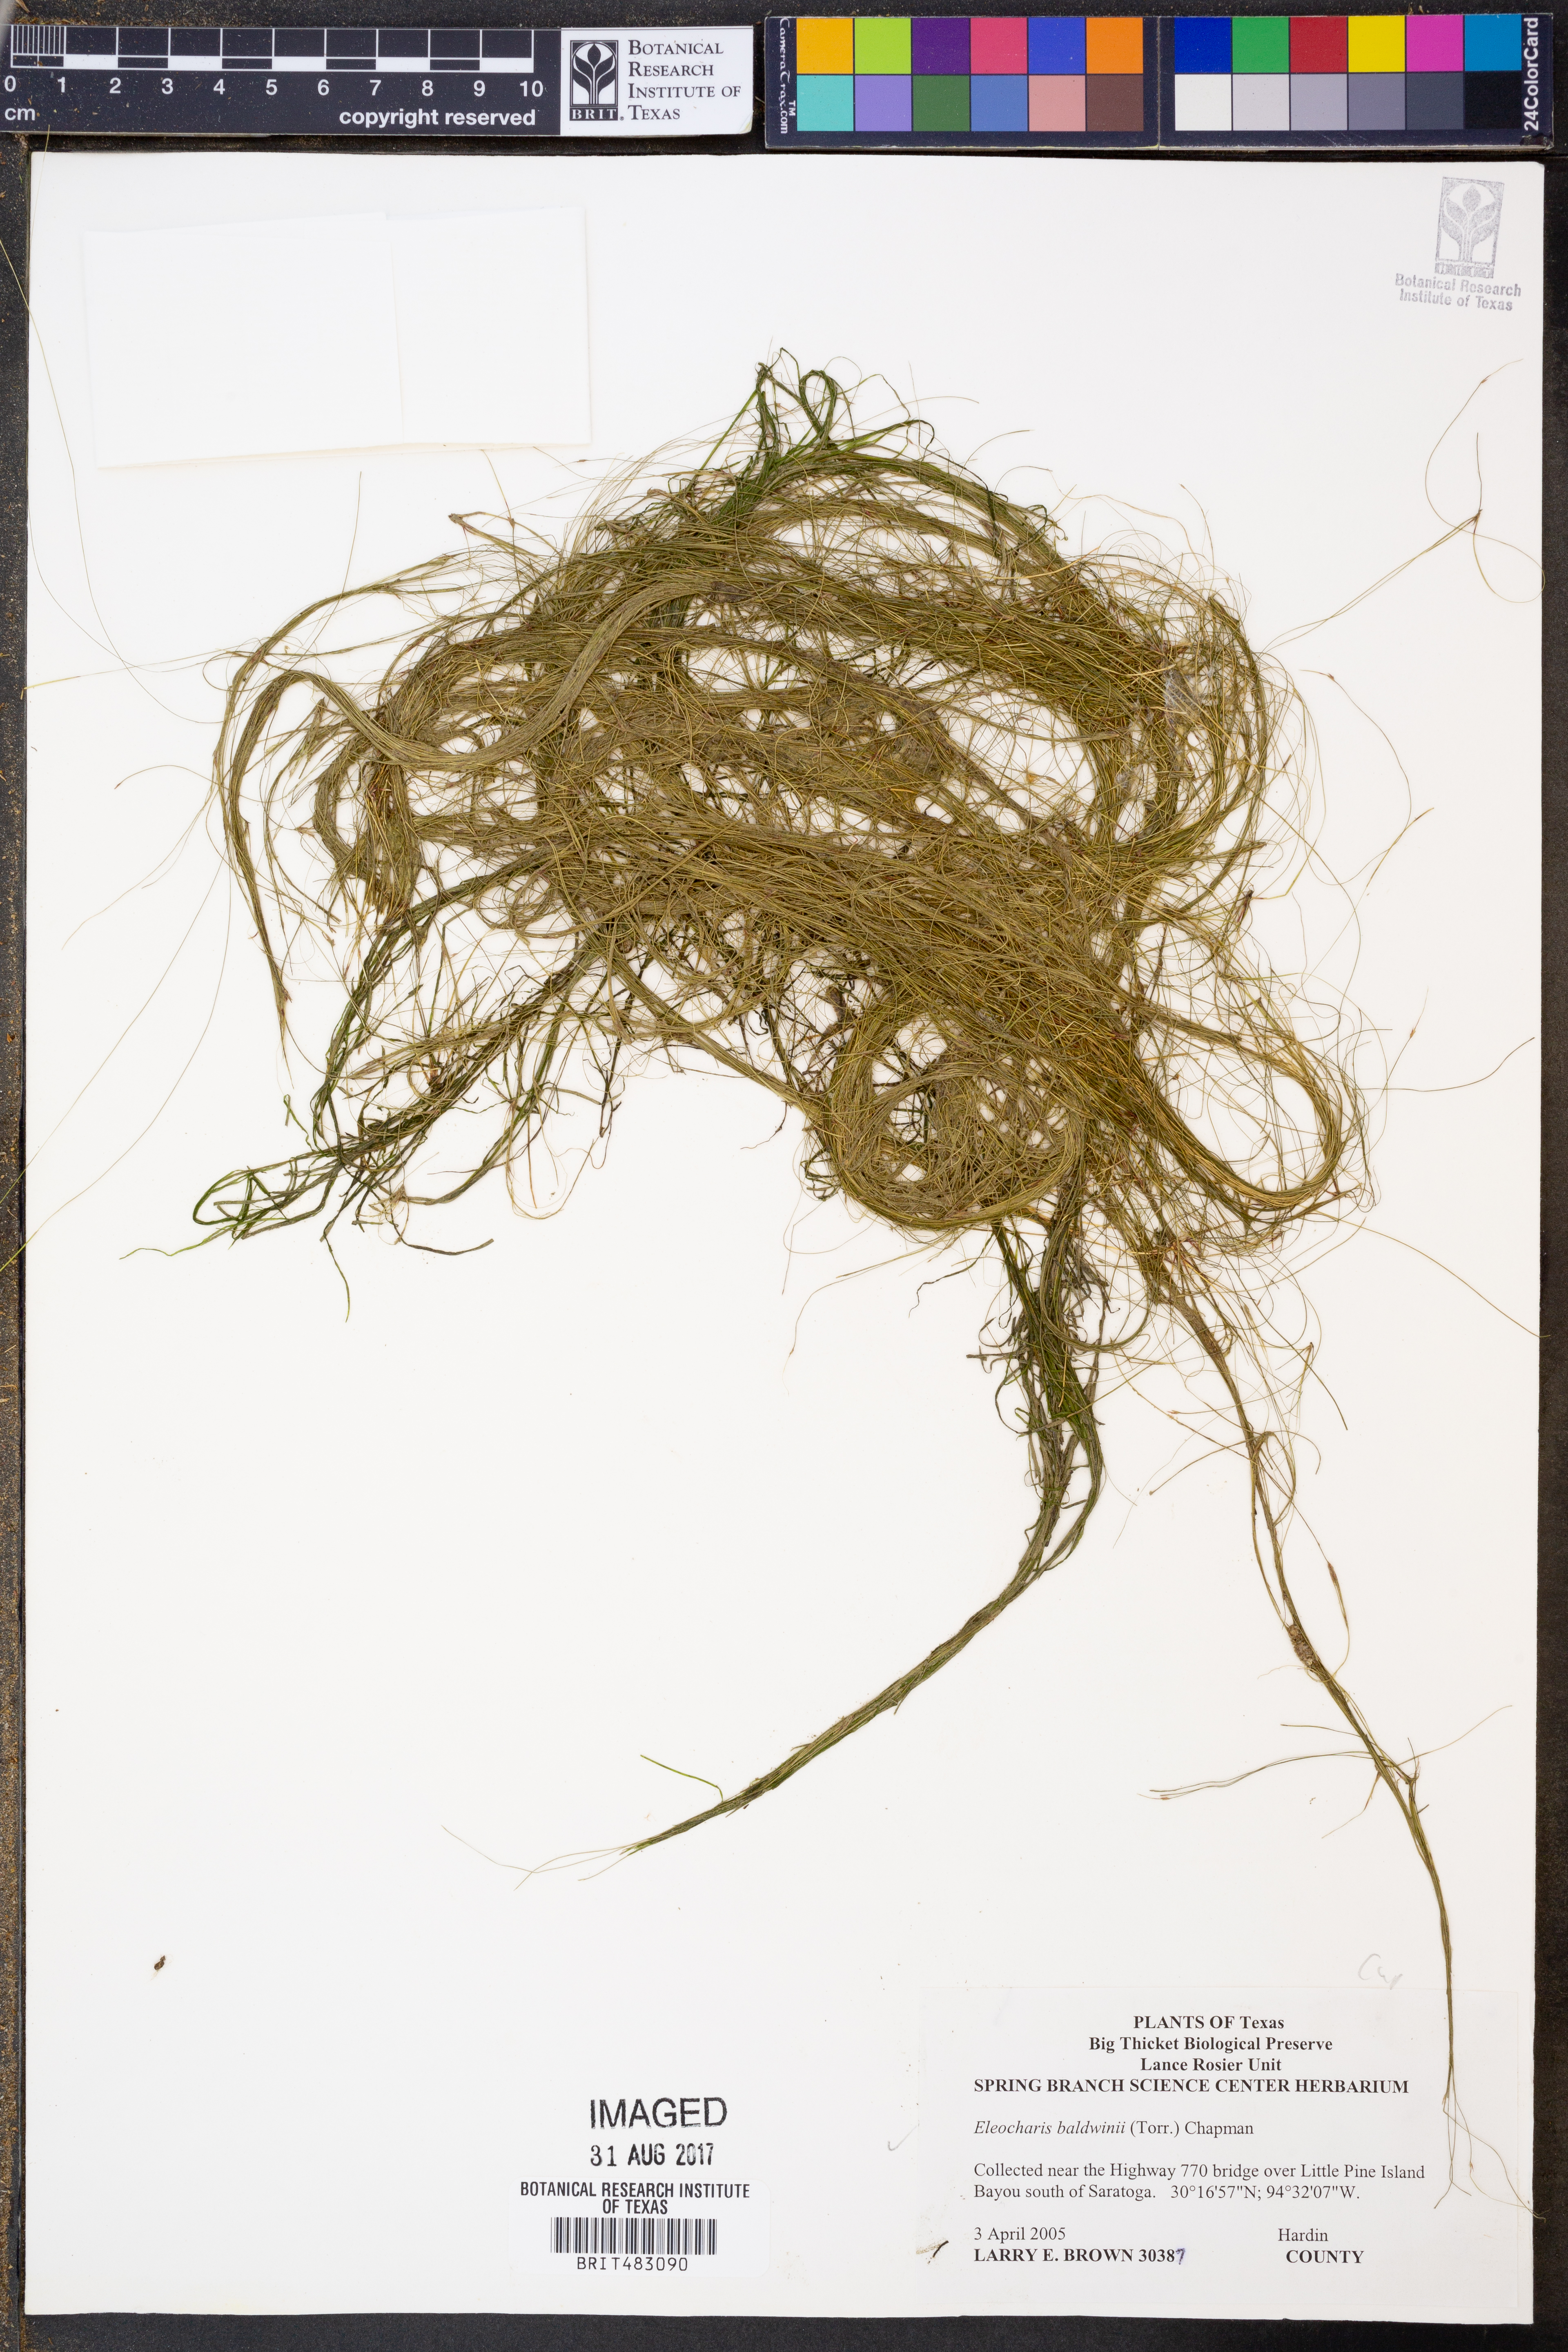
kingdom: Plantae
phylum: Tracheophyta
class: Liliopsida
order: Poales
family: Cyperaceae
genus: Eleocharis
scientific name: Eleocharis baldwinii
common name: Baldwin's spike-rush
